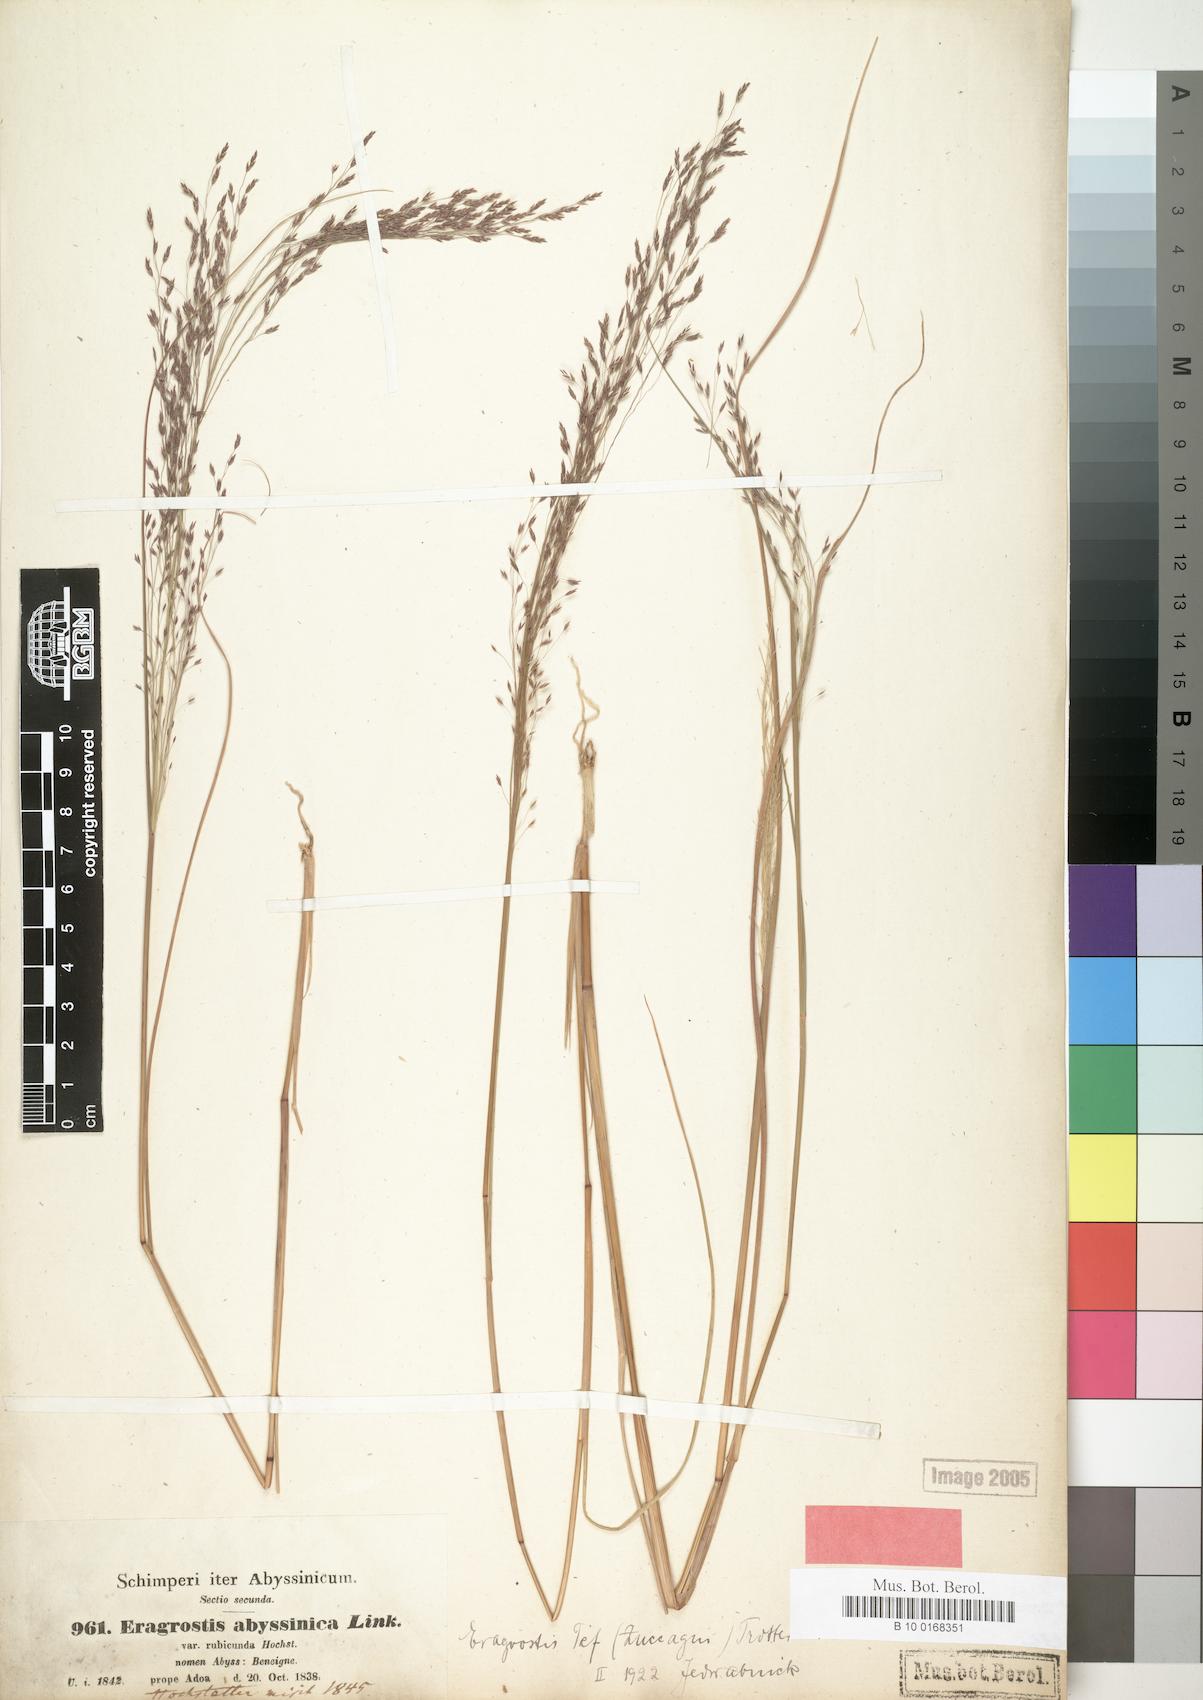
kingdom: Plantae
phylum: Tracheophyta
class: Liliopsida
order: Poales
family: Poaceae
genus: Eragrostis
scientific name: Eragrostis abyssinica
